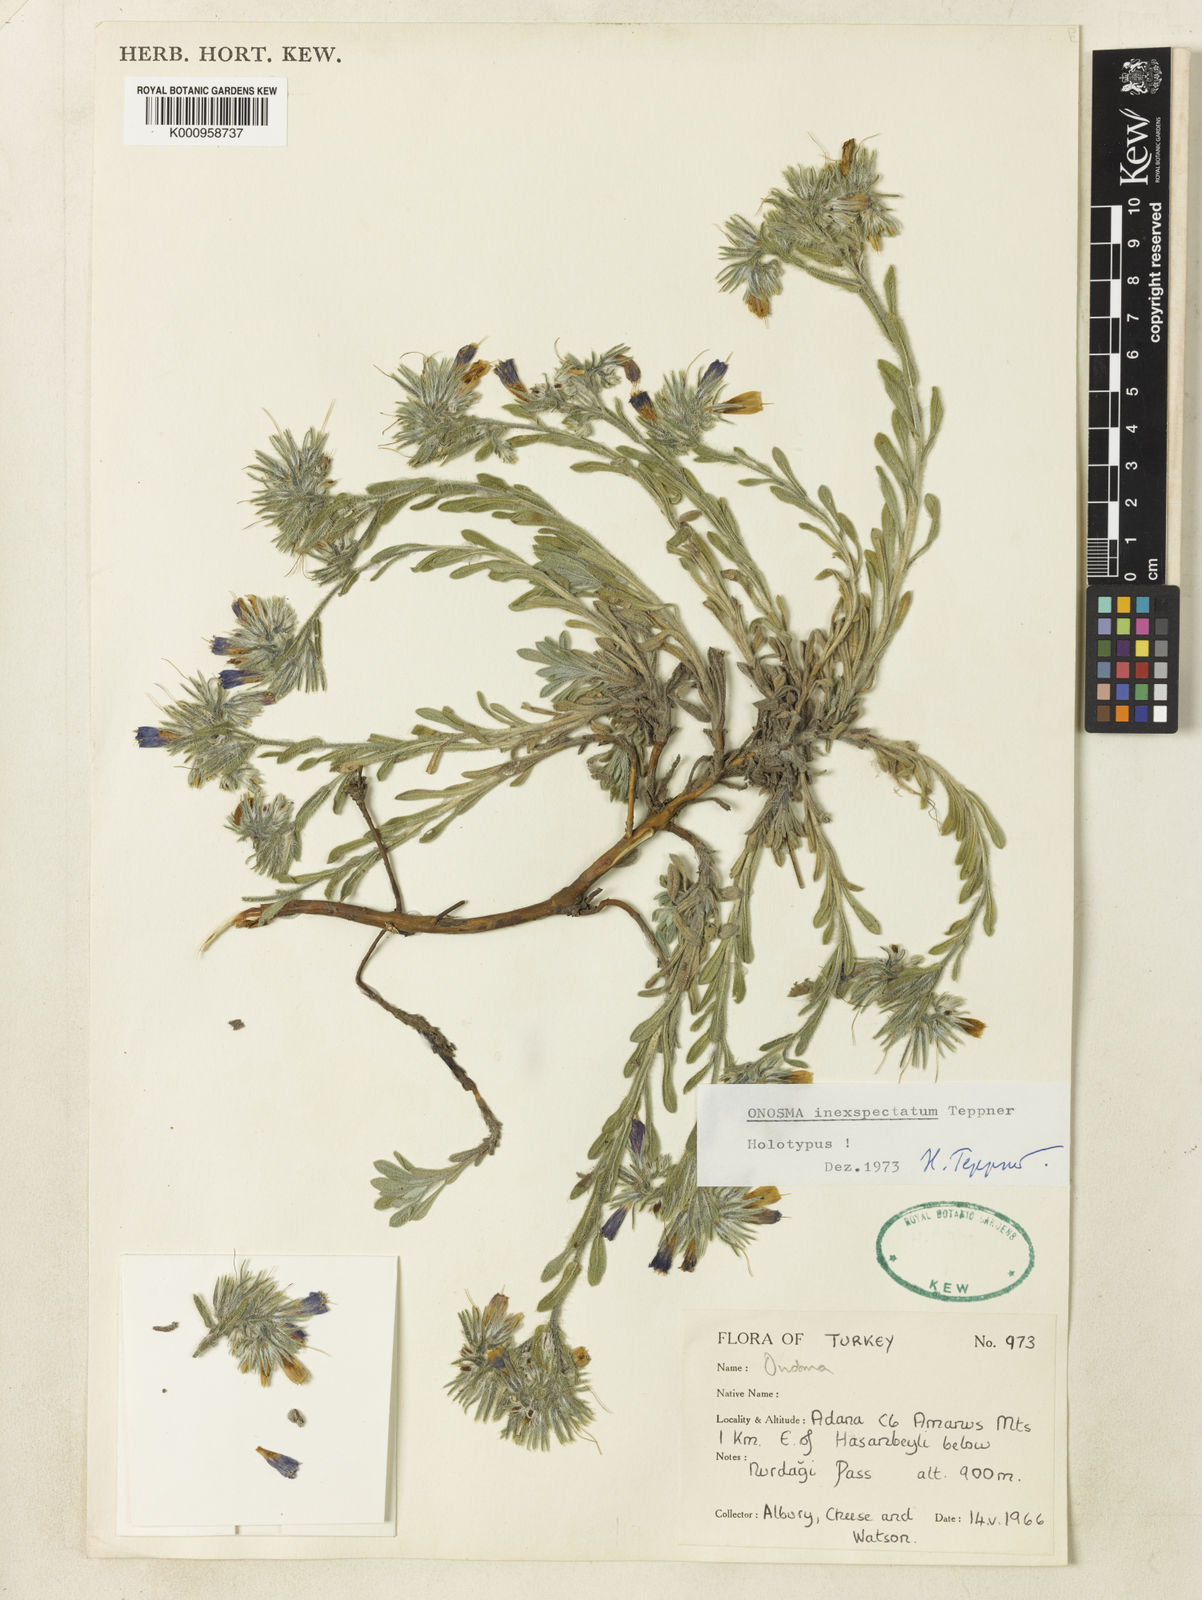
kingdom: Plantae
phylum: Tracheophyta
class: Magnoliopsida
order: Boraginales
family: Boraginaceae
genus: Onosma
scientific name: Onosma inexspectata
